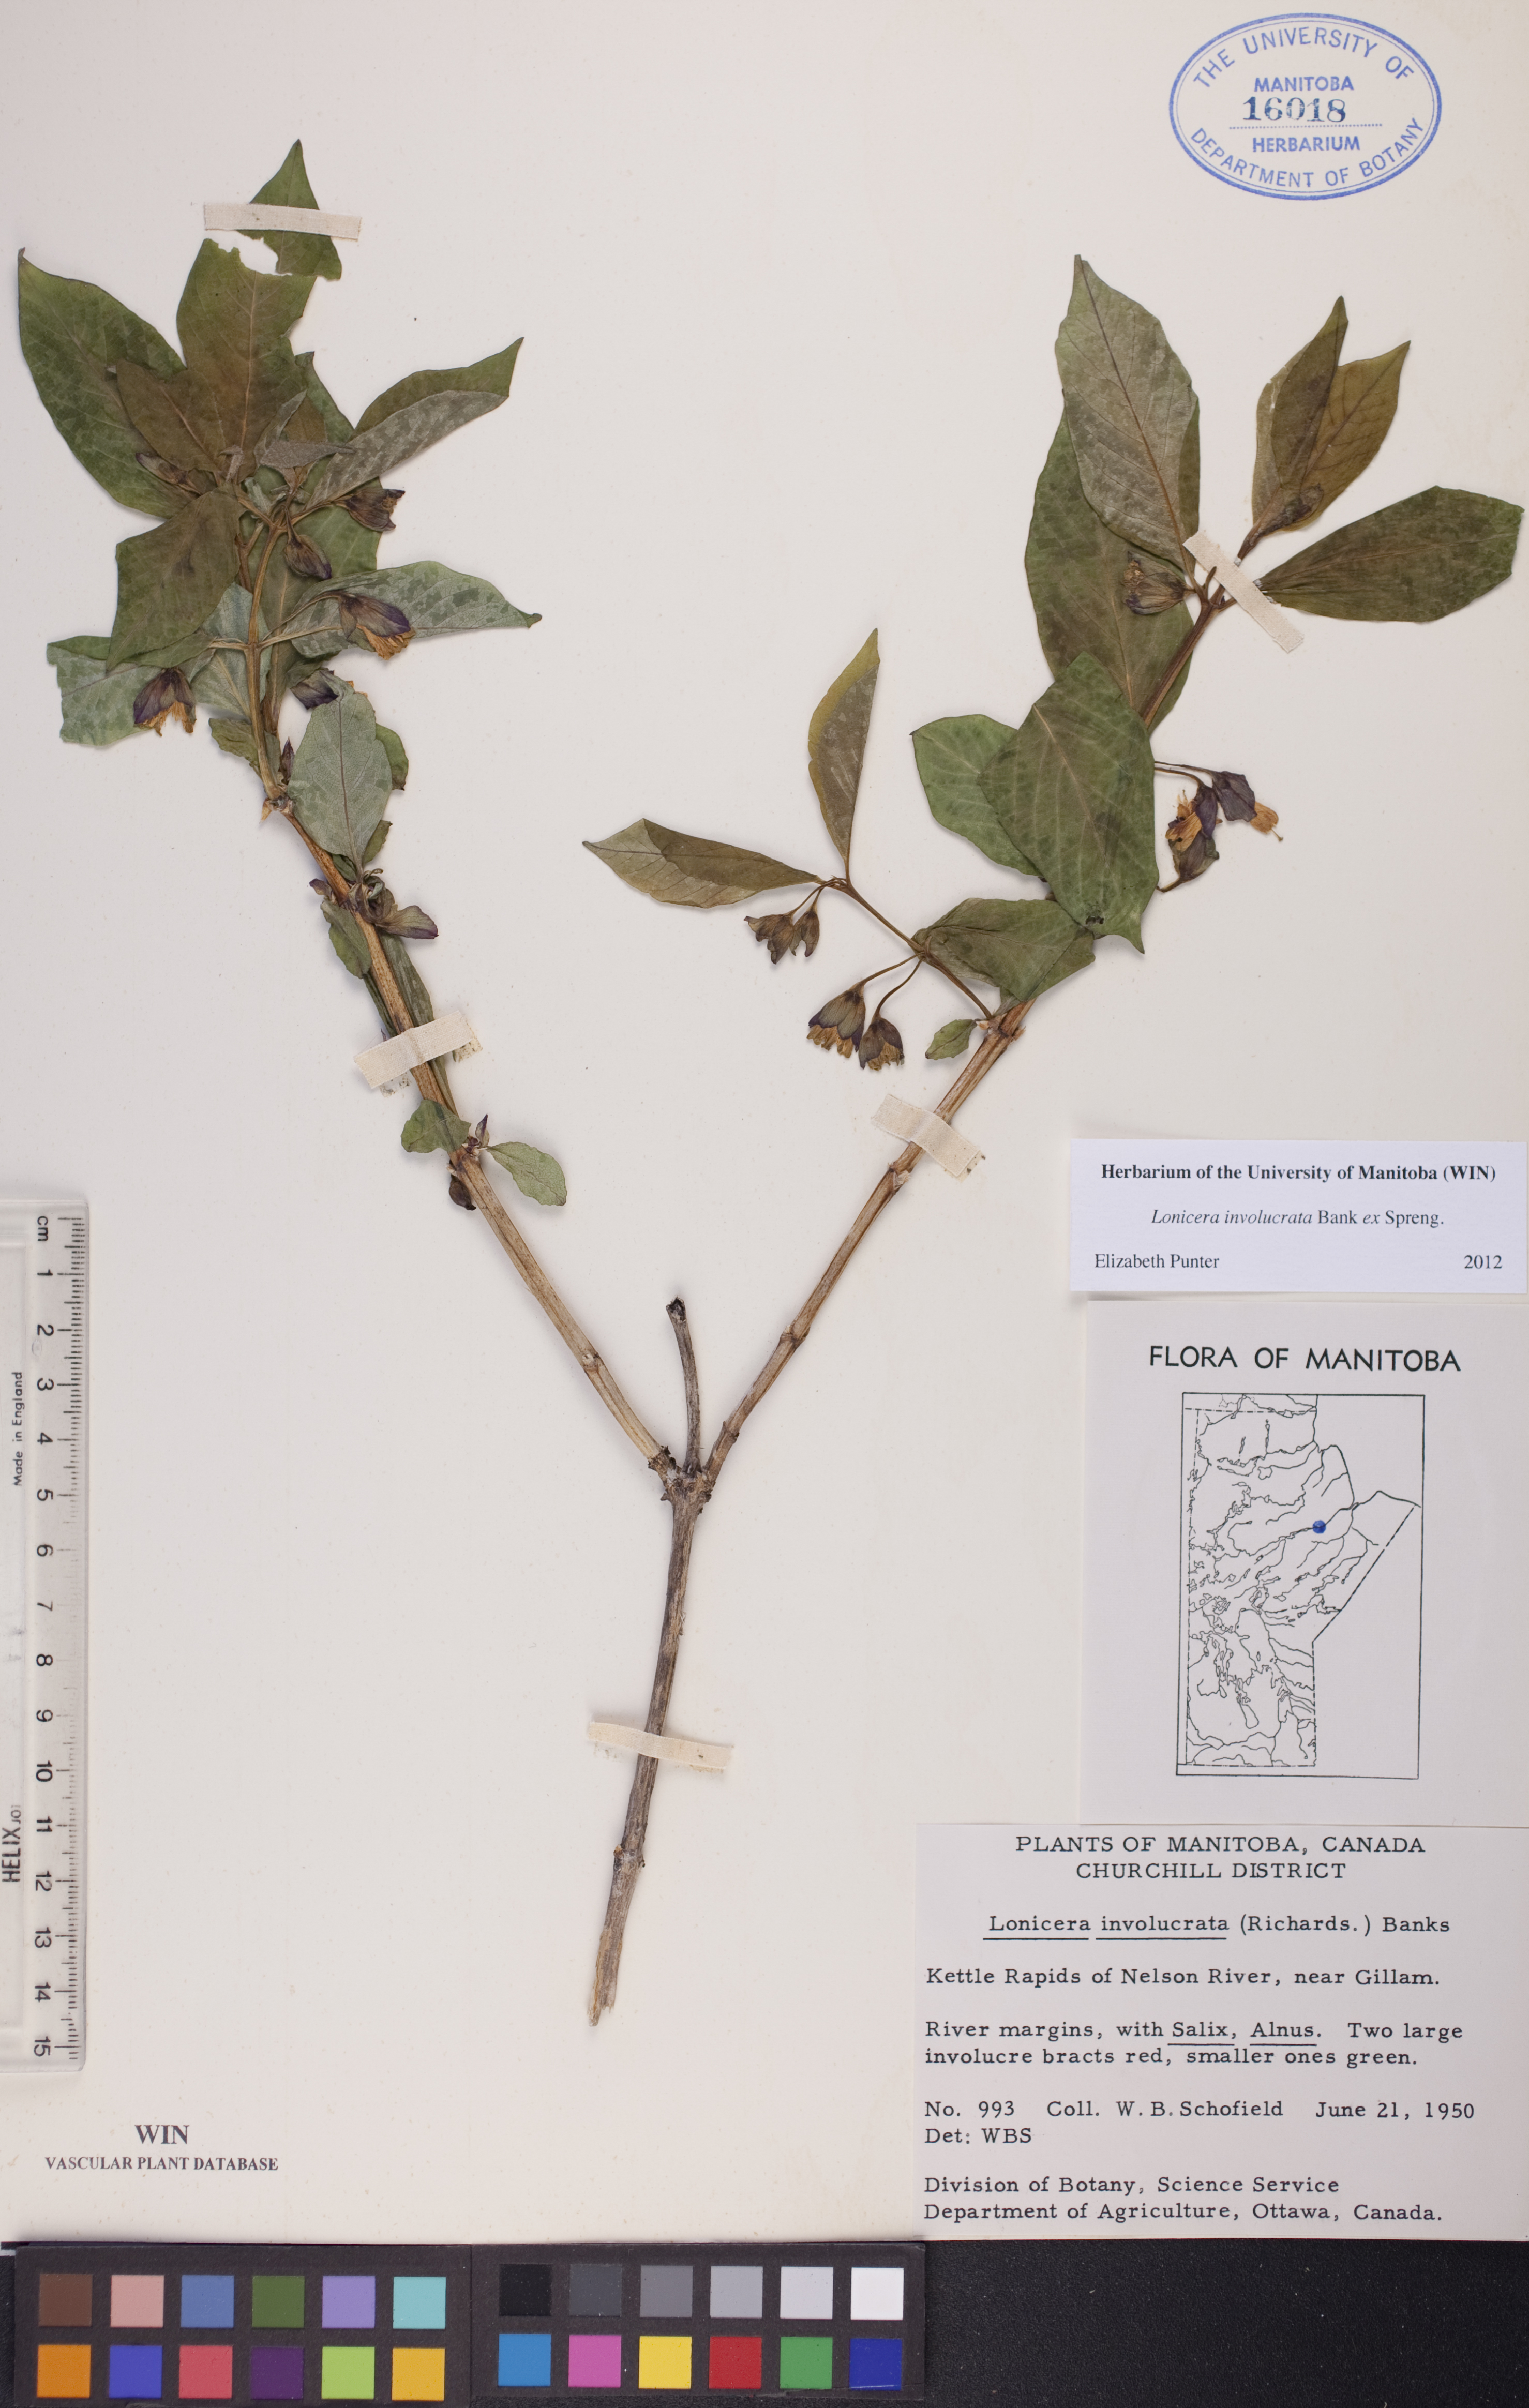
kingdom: Plantae
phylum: Tracheophyta
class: Magnoliopsida
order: Dipsacales
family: Caprifoliaceae
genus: Lonicera
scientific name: Lonicera involucrata
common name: Californian honeysuckle
